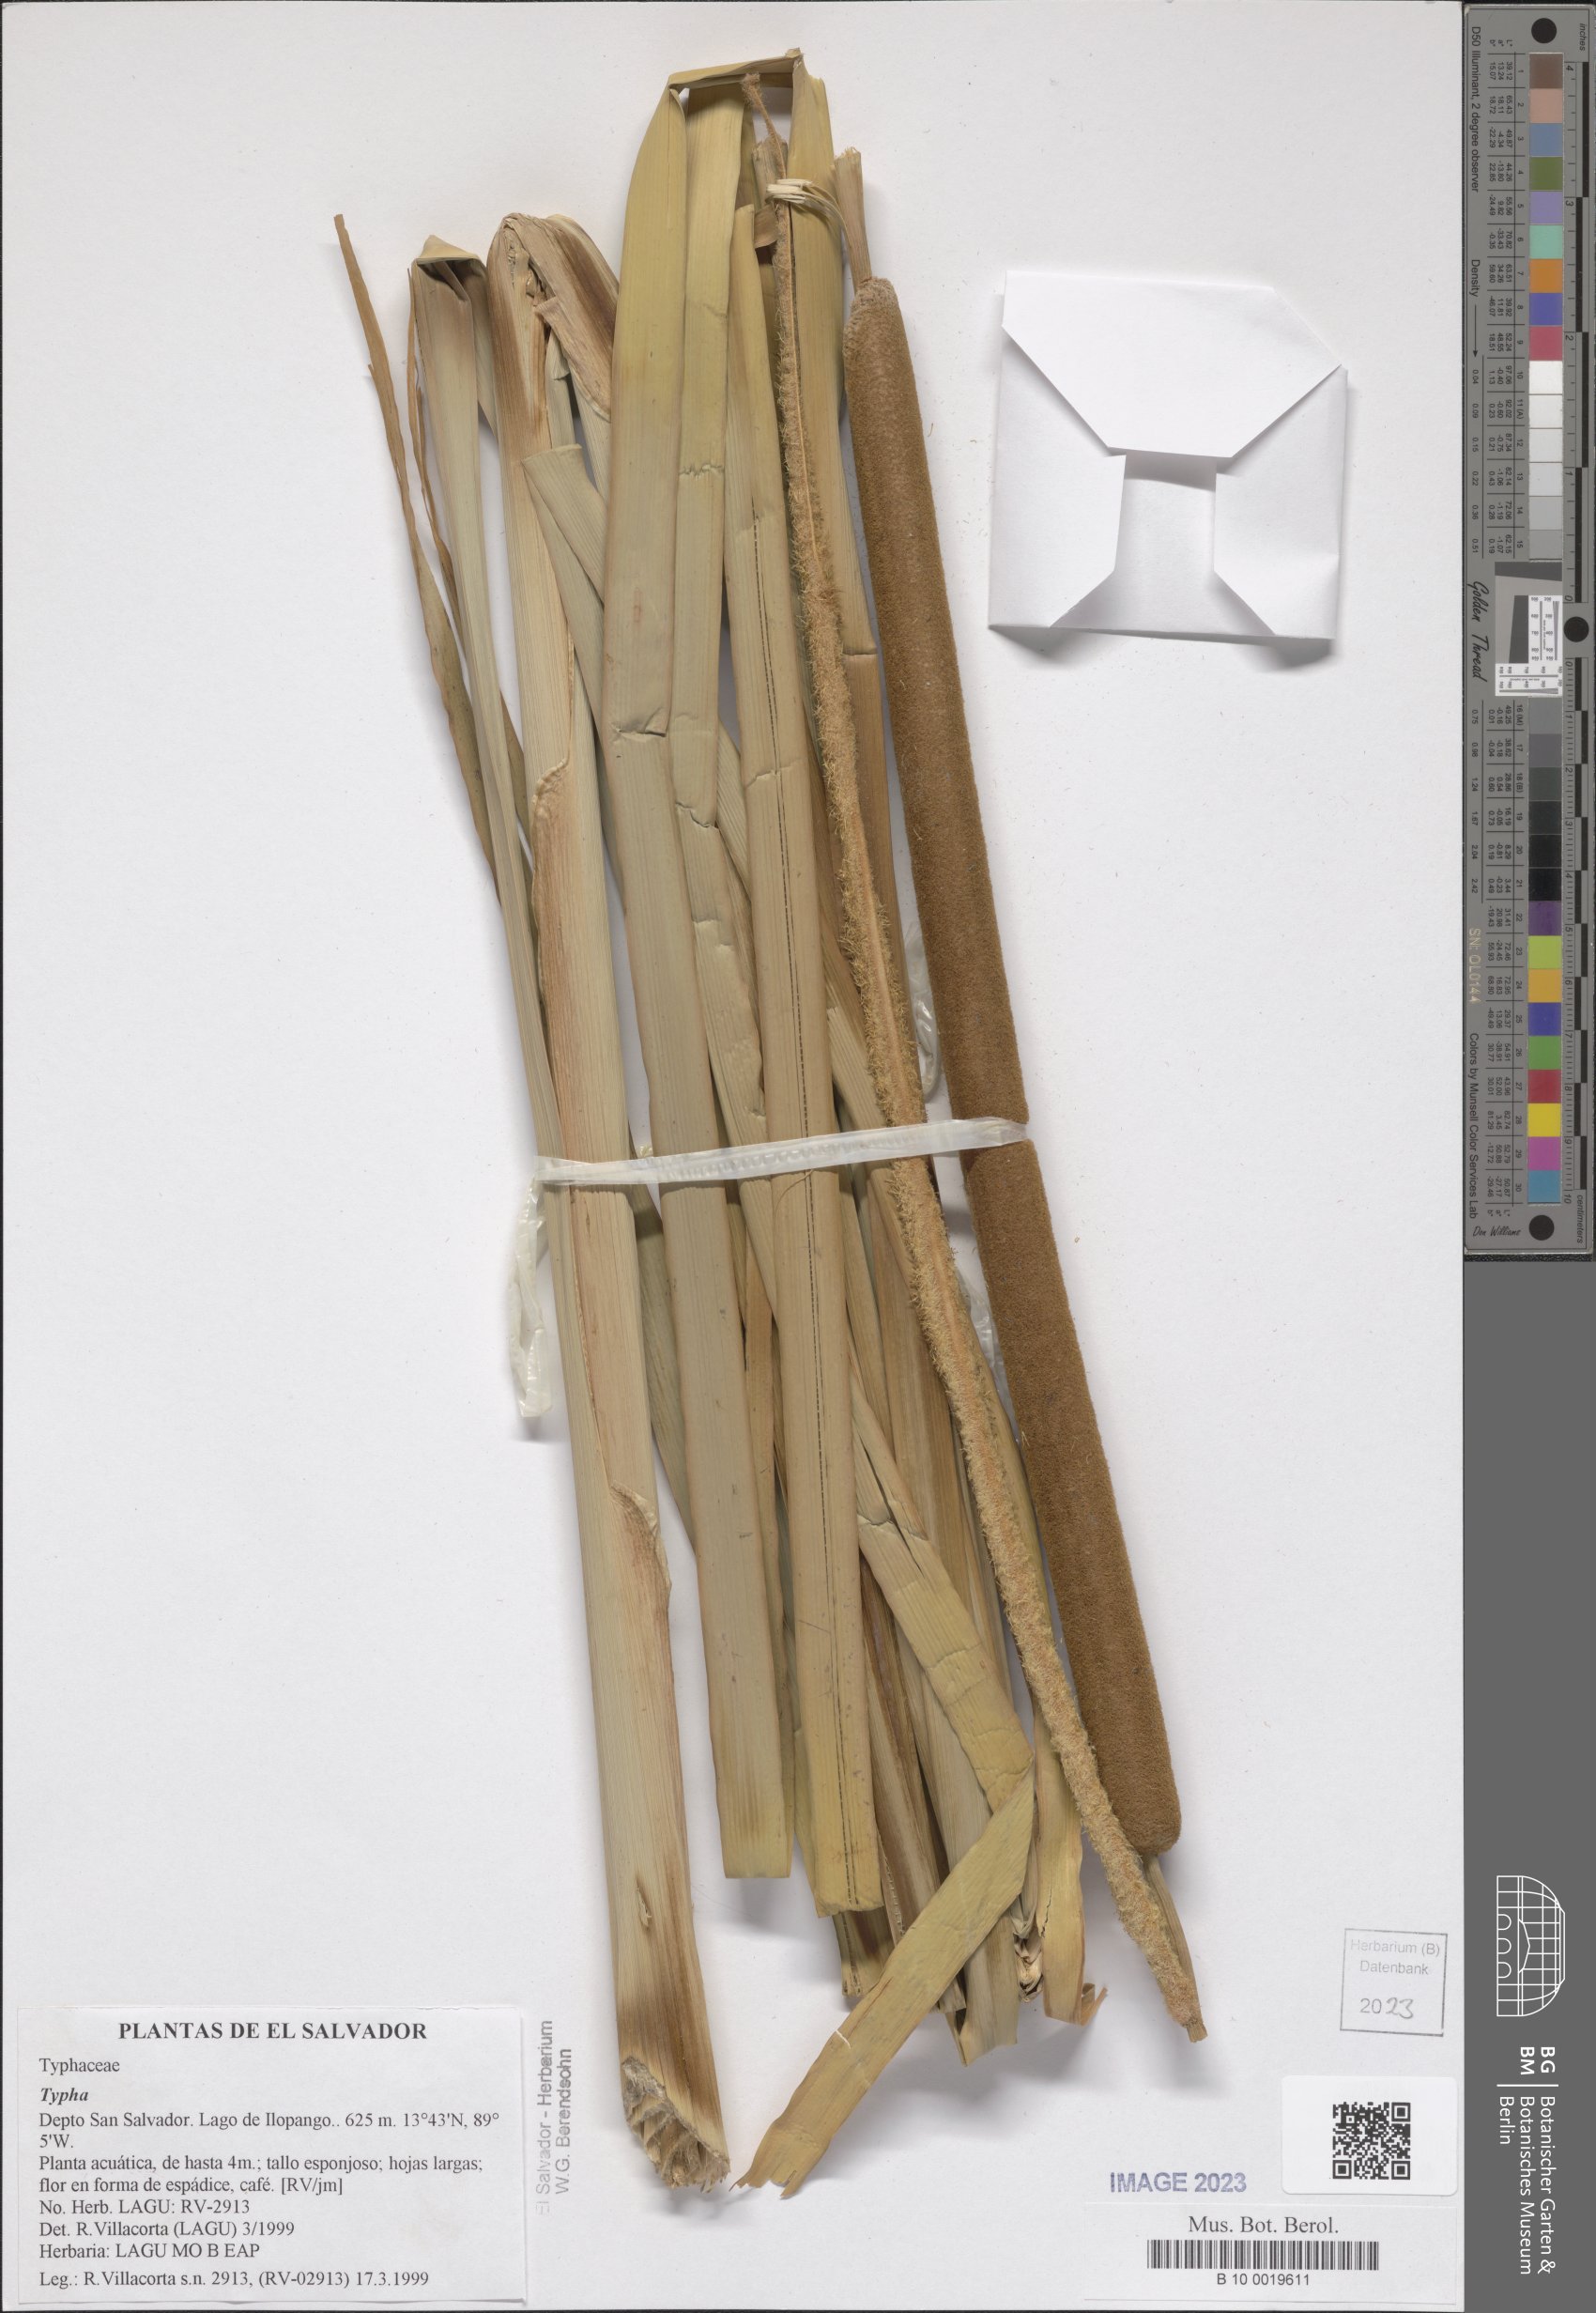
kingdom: Plantae
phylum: Tracheophyta
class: Liliopsida
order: Poales
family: Typhaceae
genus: Typha
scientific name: Typha
